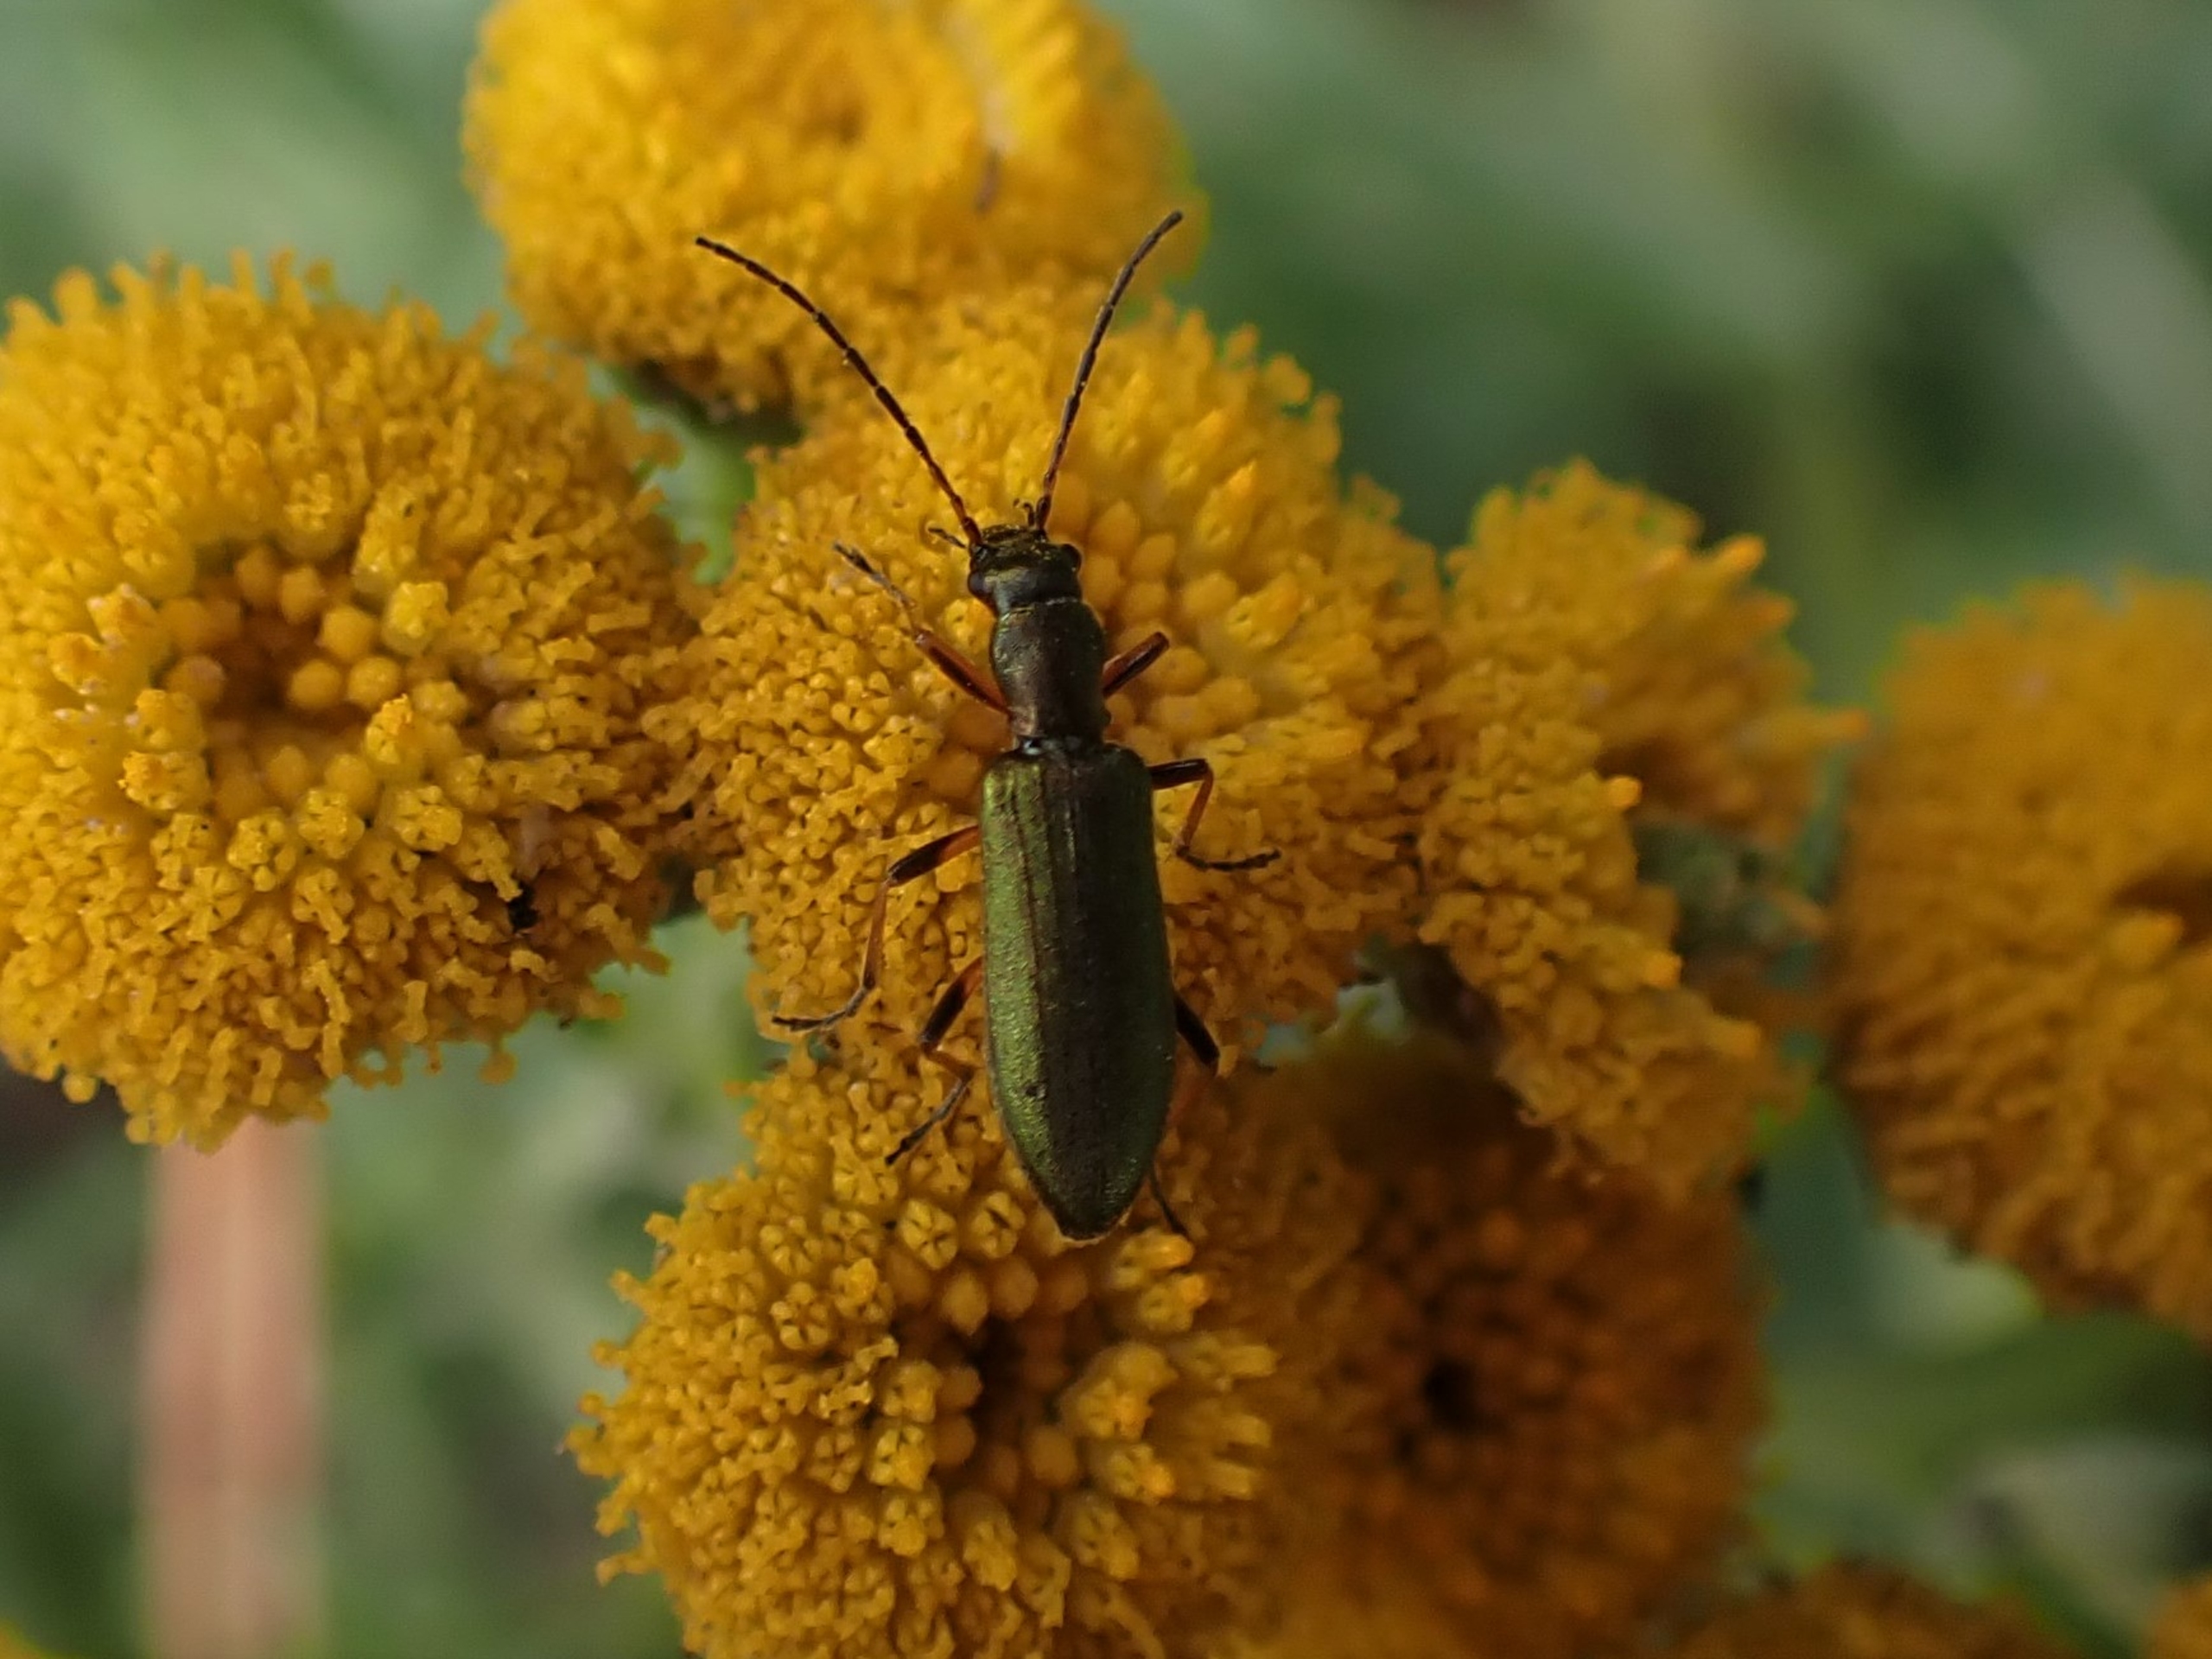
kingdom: Animalia
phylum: Arthropoda
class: Insecta
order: Coleoptera
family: Oedemeridae
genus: Chrysanthia
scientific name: Chrysanthia geniculata
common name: Grøn solbille
